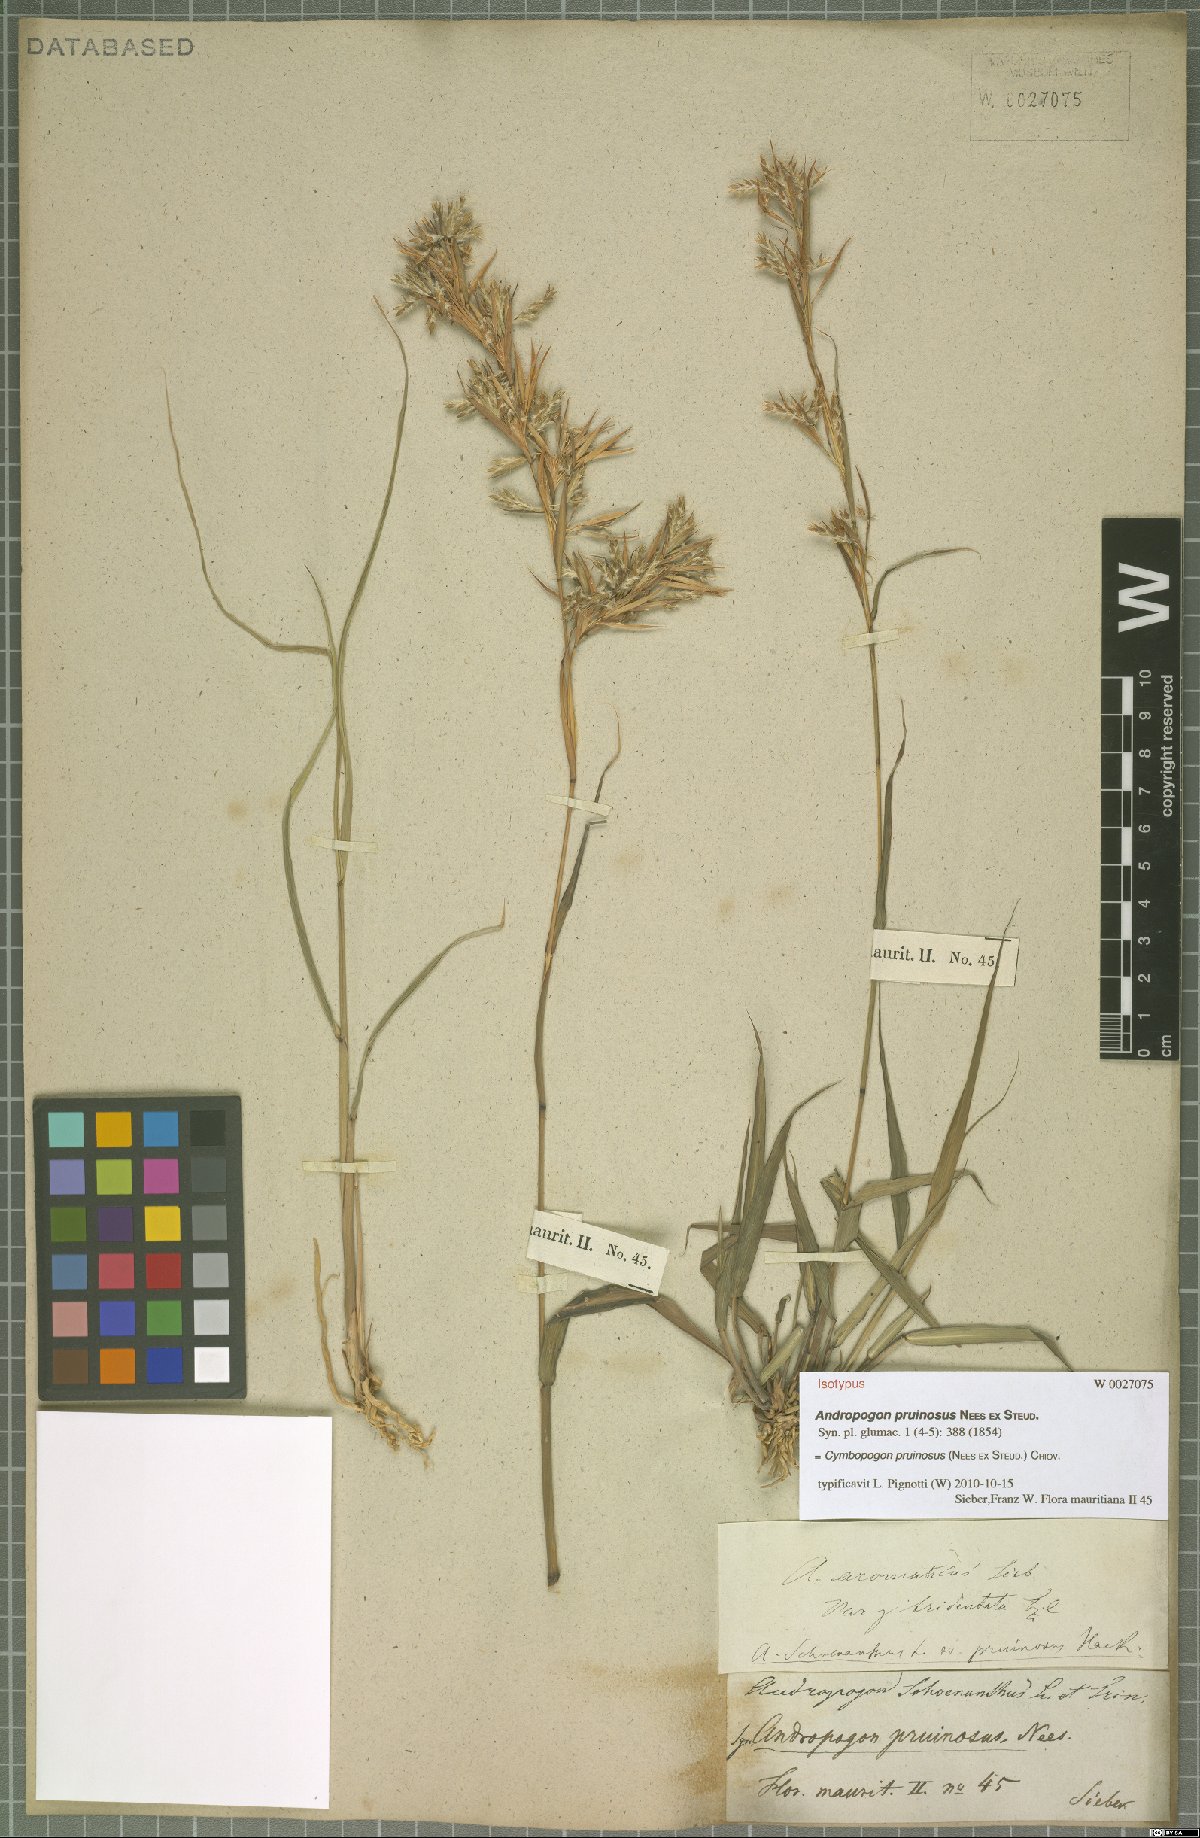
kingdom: Plantae
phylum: Tracheophyta
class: Liliopsida
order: Poales
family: Poaceae
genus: Cymbopogon
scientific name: Cymbopogon pruinosus
